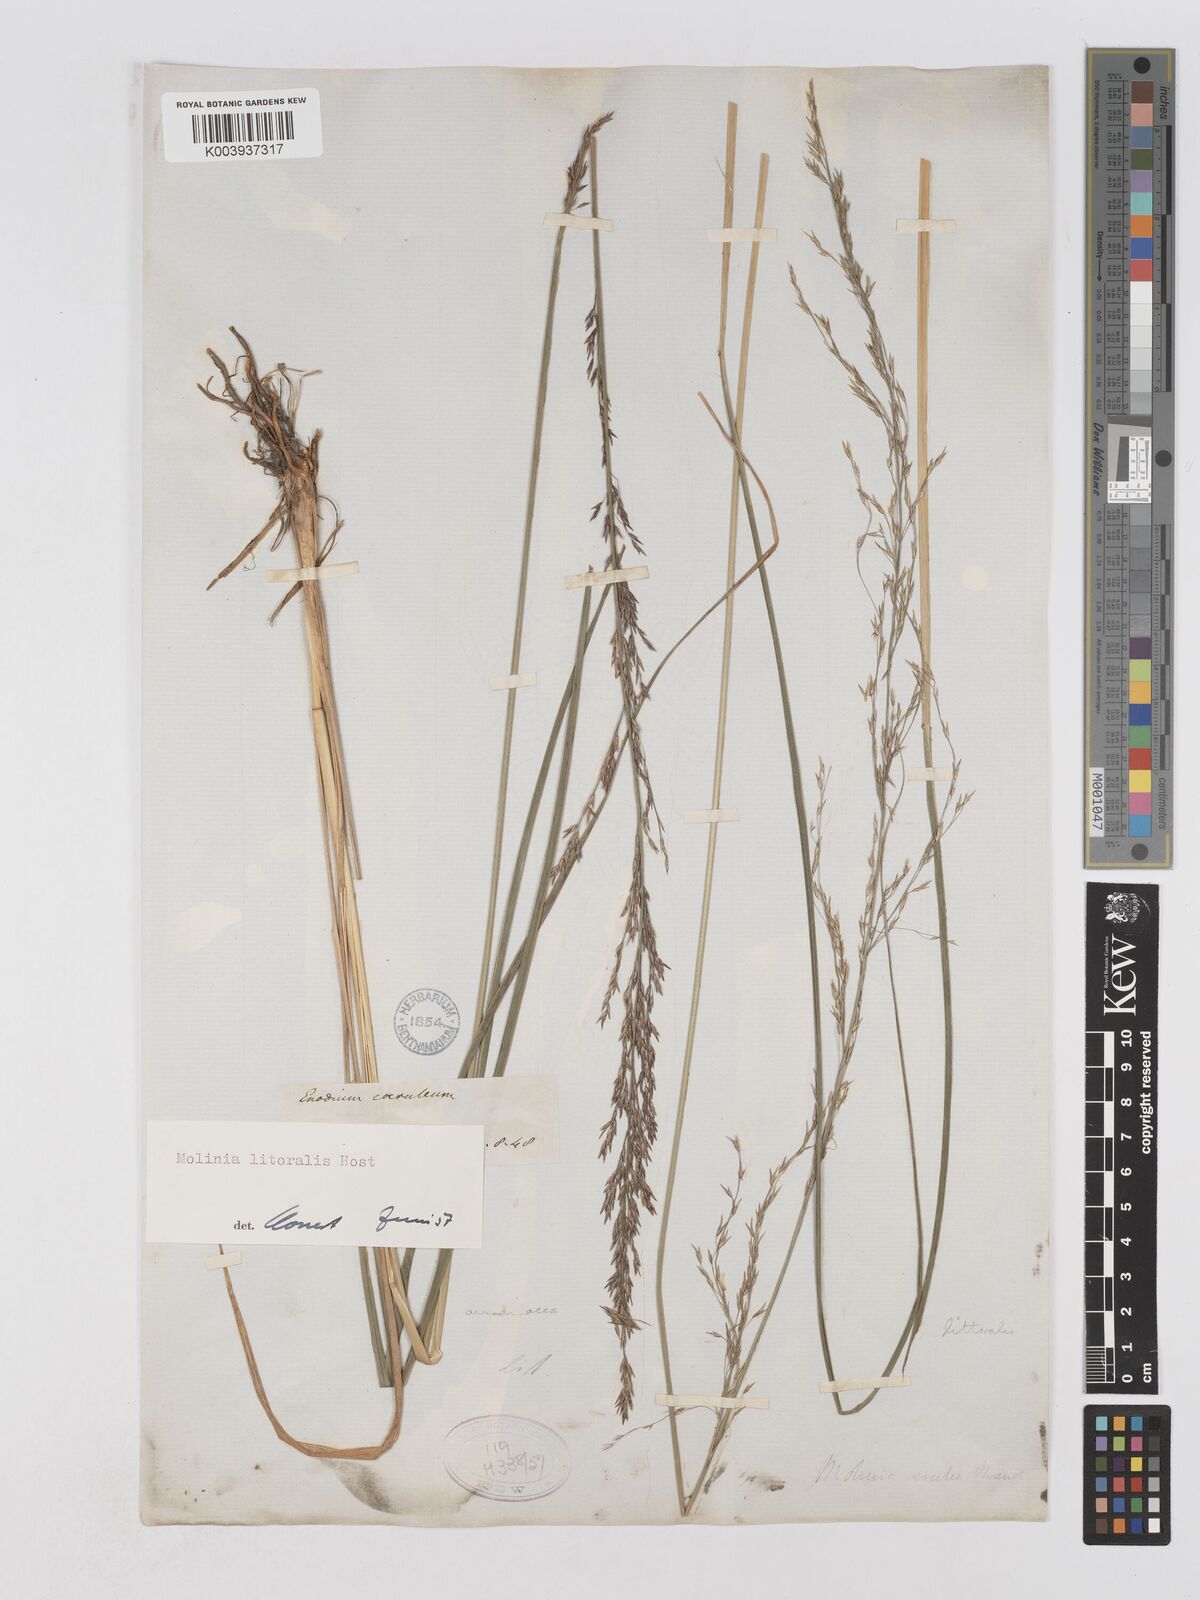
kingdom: Plantae
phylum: Tracheophyta
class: Liliopsida
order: Poales
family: Poaceae
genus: Molinia
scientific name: Molinia caerulea
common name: Purple moor-grass
